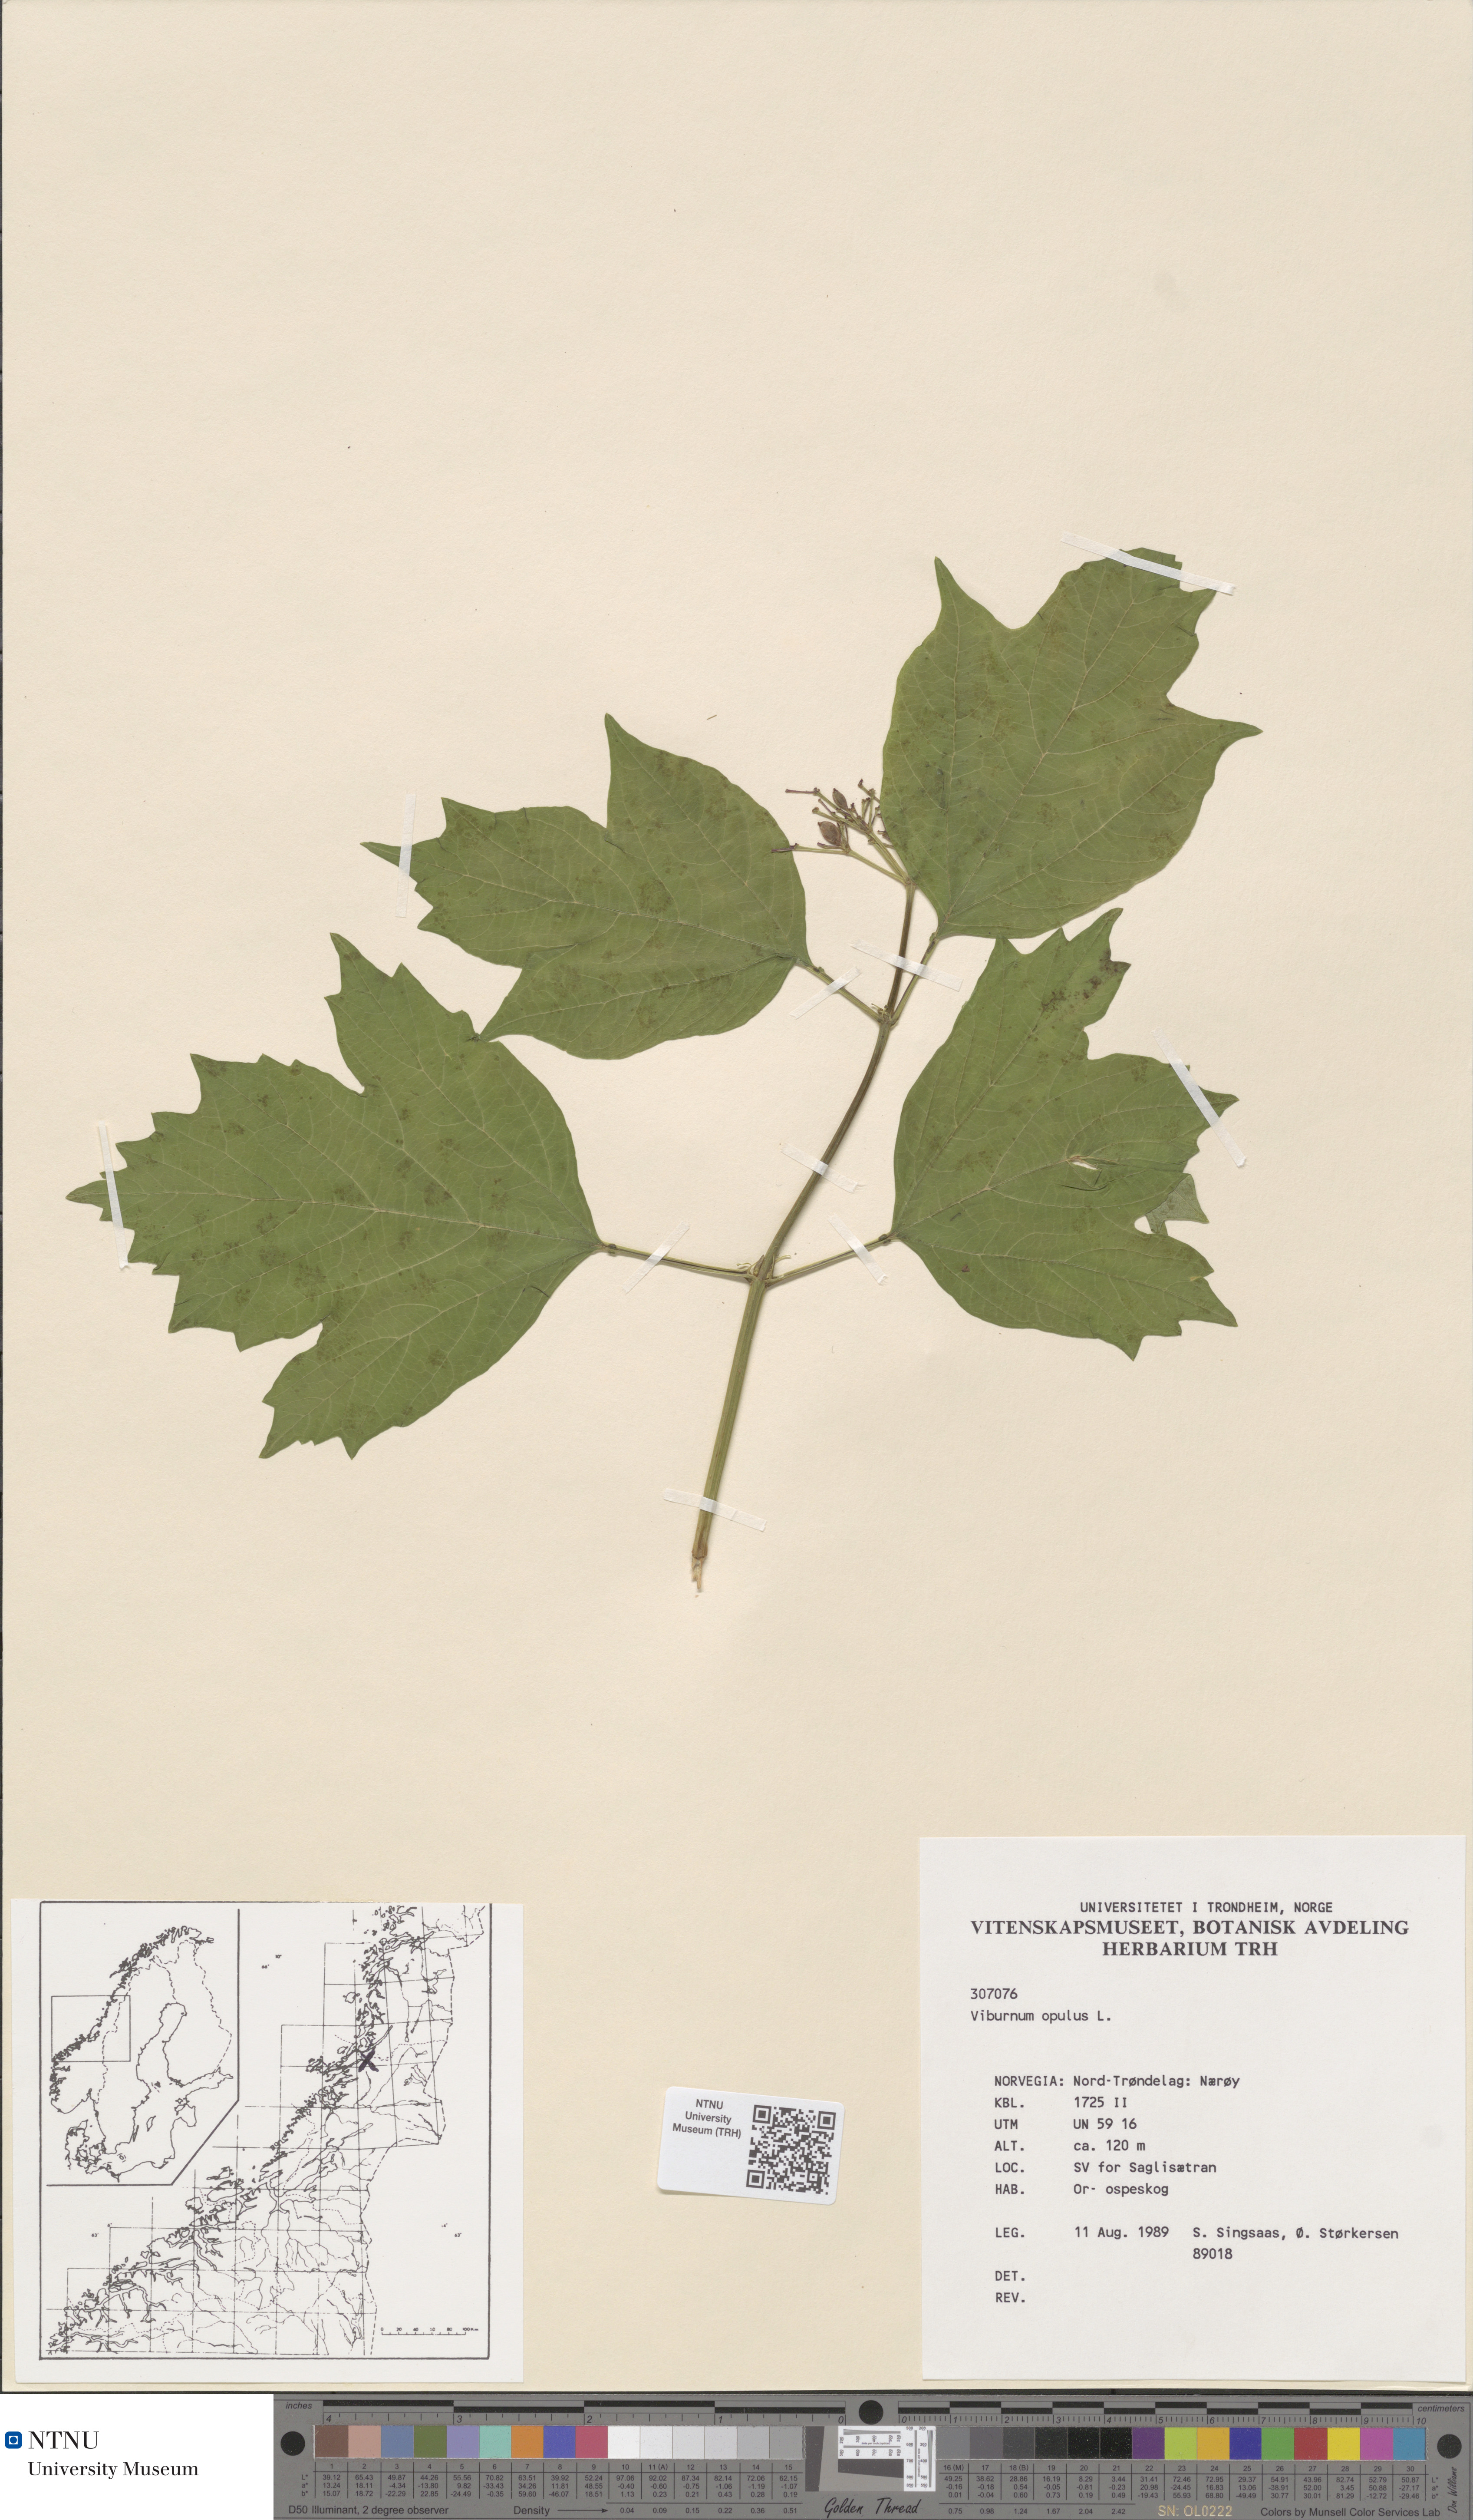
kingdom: Plantae
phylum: Tracheophyta
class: Magnoliopsida
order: Dipsacales
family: Viburnaceae
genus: Viburnum
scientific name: Viburnum opulus
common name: Guelder-rose
